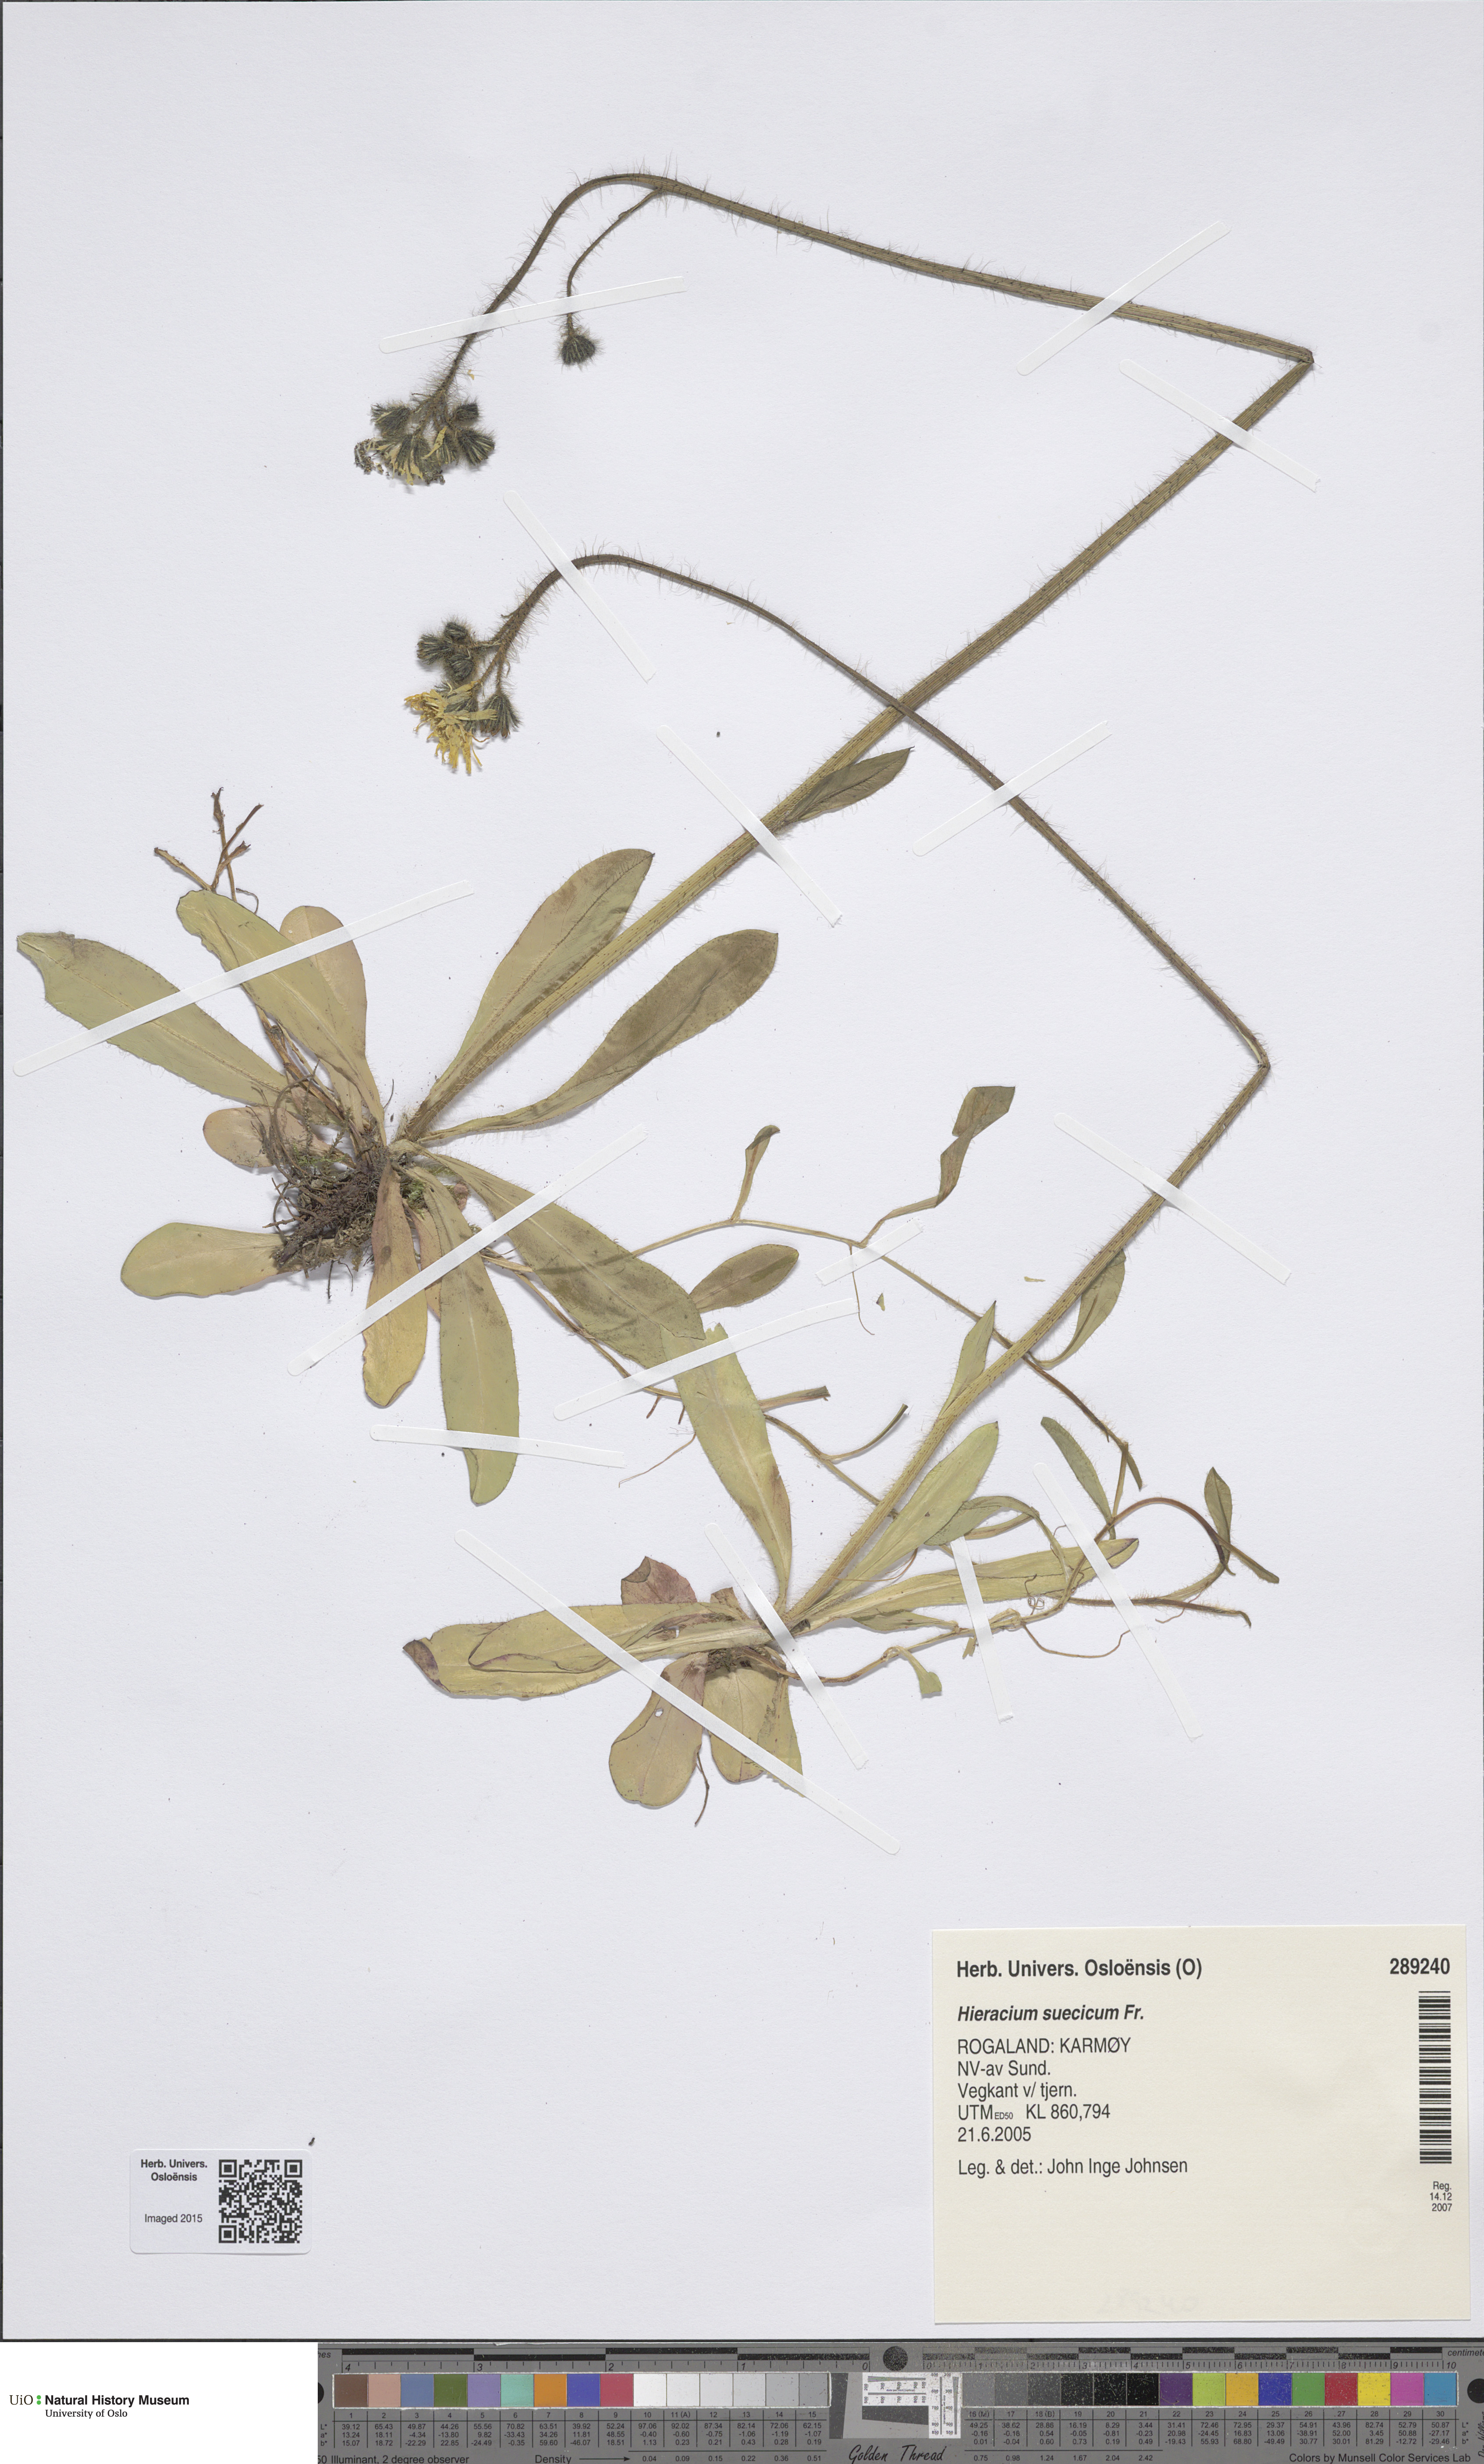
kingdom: Plantae
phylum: Tracheophyta
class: Magnoliopsida
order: Asterales
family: Asteraceae
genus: Pilosella
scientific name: Pilosella dubia
